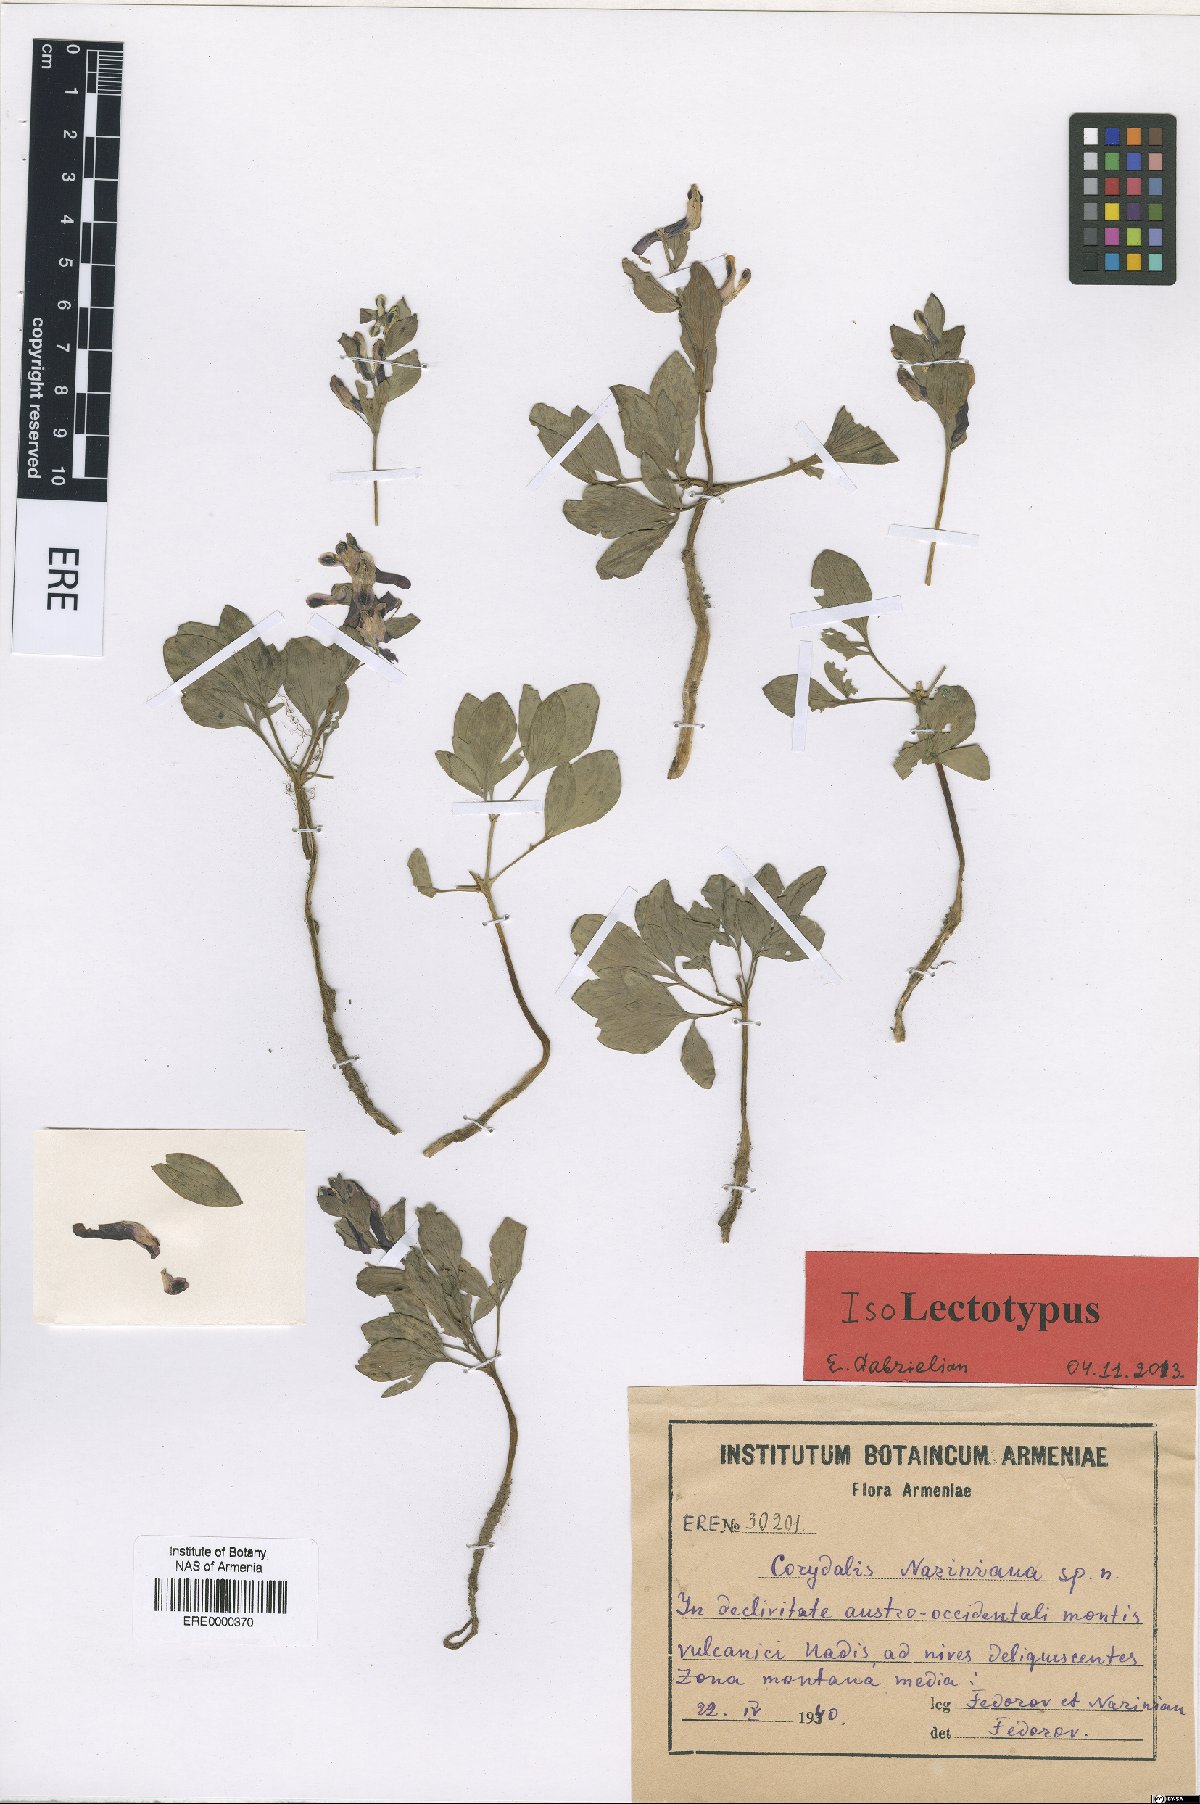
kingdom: Plantae
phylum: Tracheophyta
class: Magnoliopsida
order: Ranunculales
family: Papaveraceae
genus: Corydalis
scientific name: Corydalis nariniana
